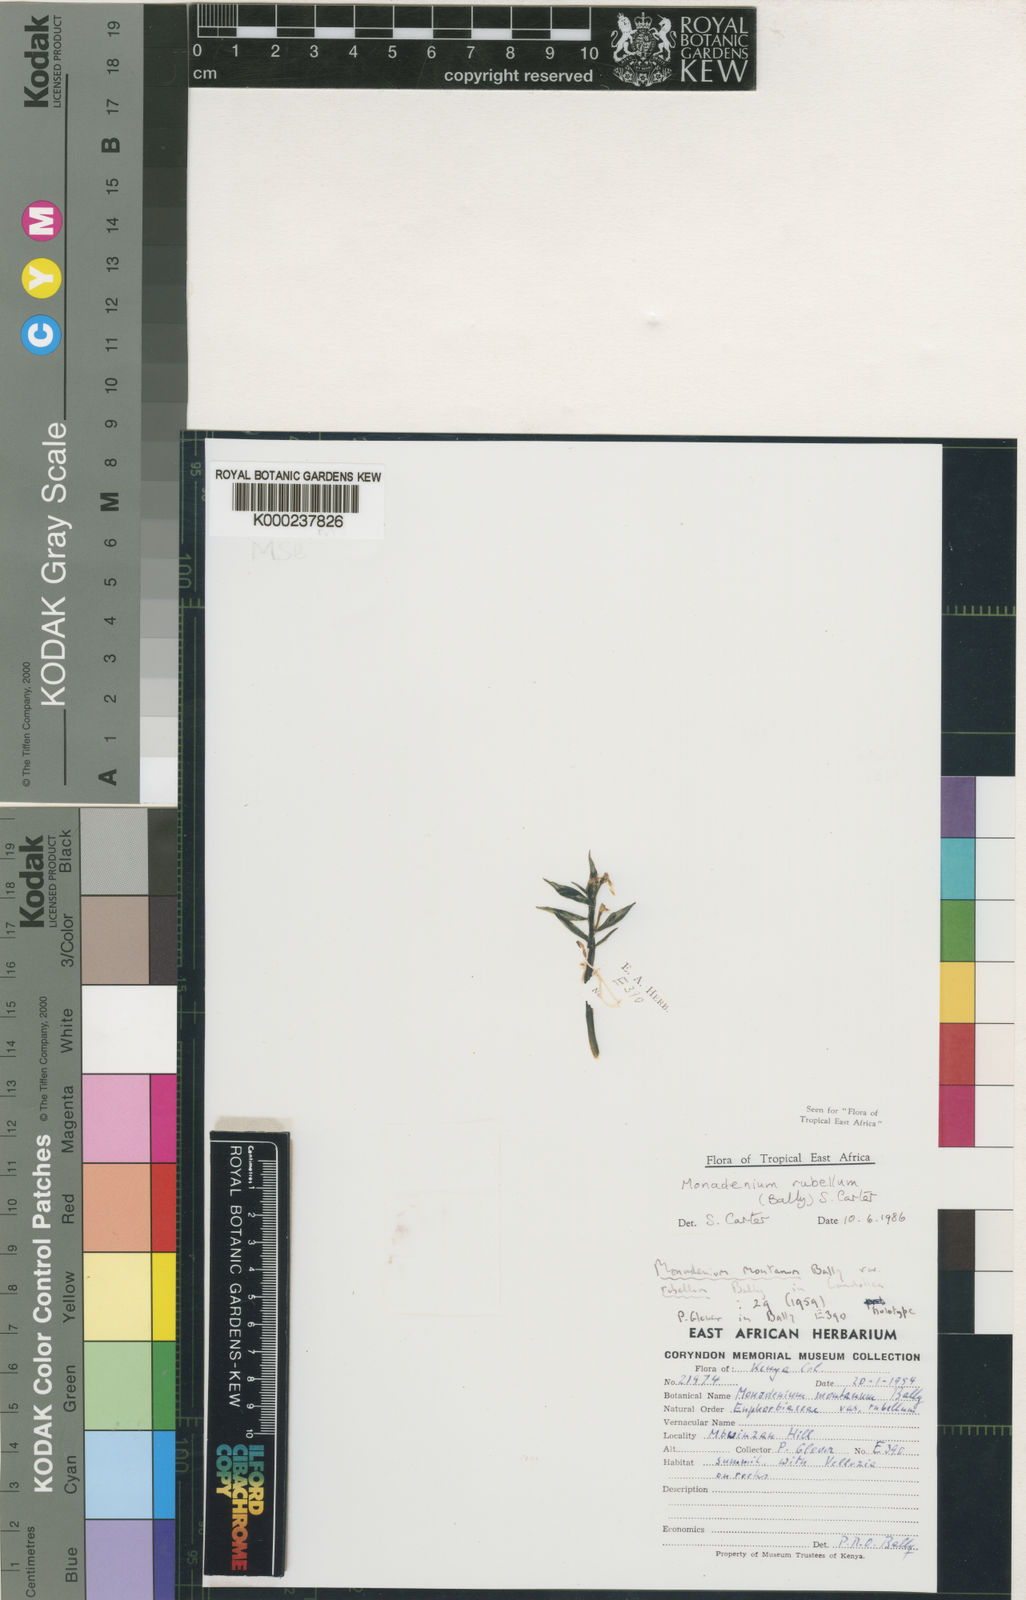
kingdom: Plantae
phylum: Tracheophyta
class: Magnoliopsida
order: Malpighiales
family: Euphorbiaceae
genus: Euphorbia
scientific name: Euphorbia neorubella
